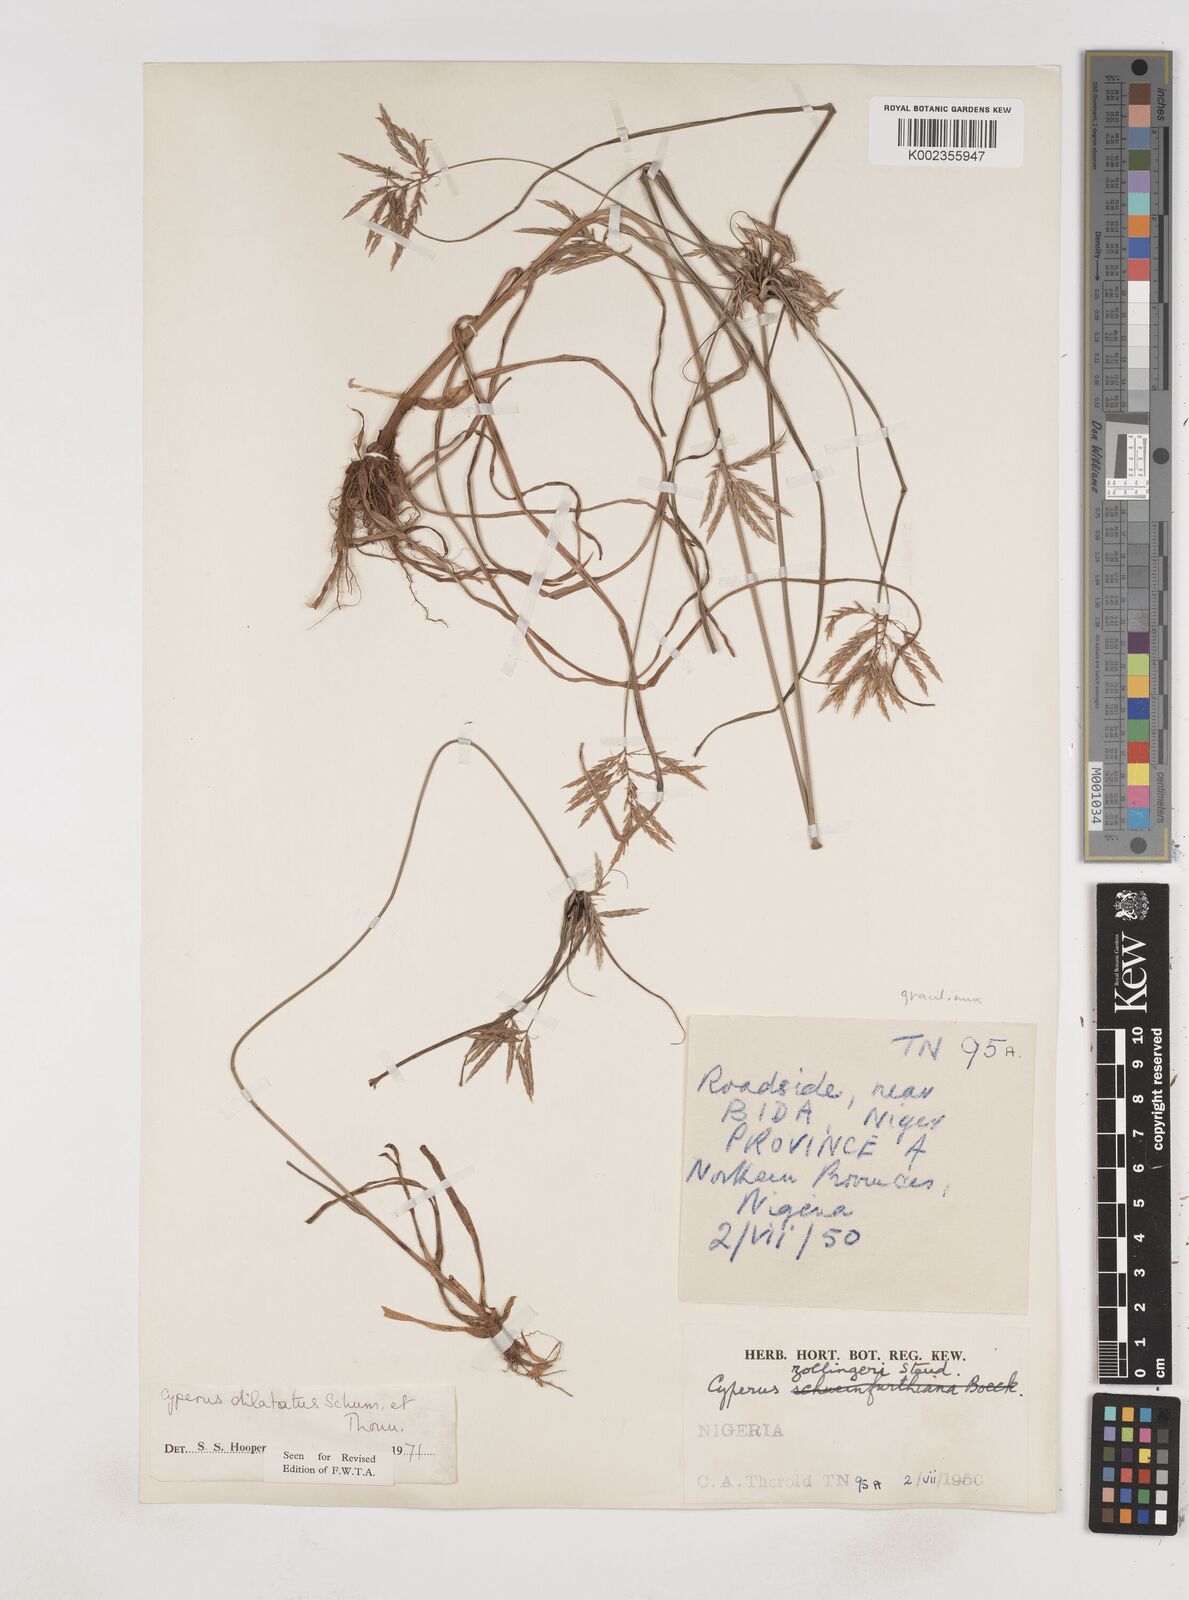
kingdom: Plantae
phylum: Tracheophyta
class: Liliopsida
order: Poales
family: Cyperaceae
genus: Cyperus
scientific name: Cyperus dilatatus
